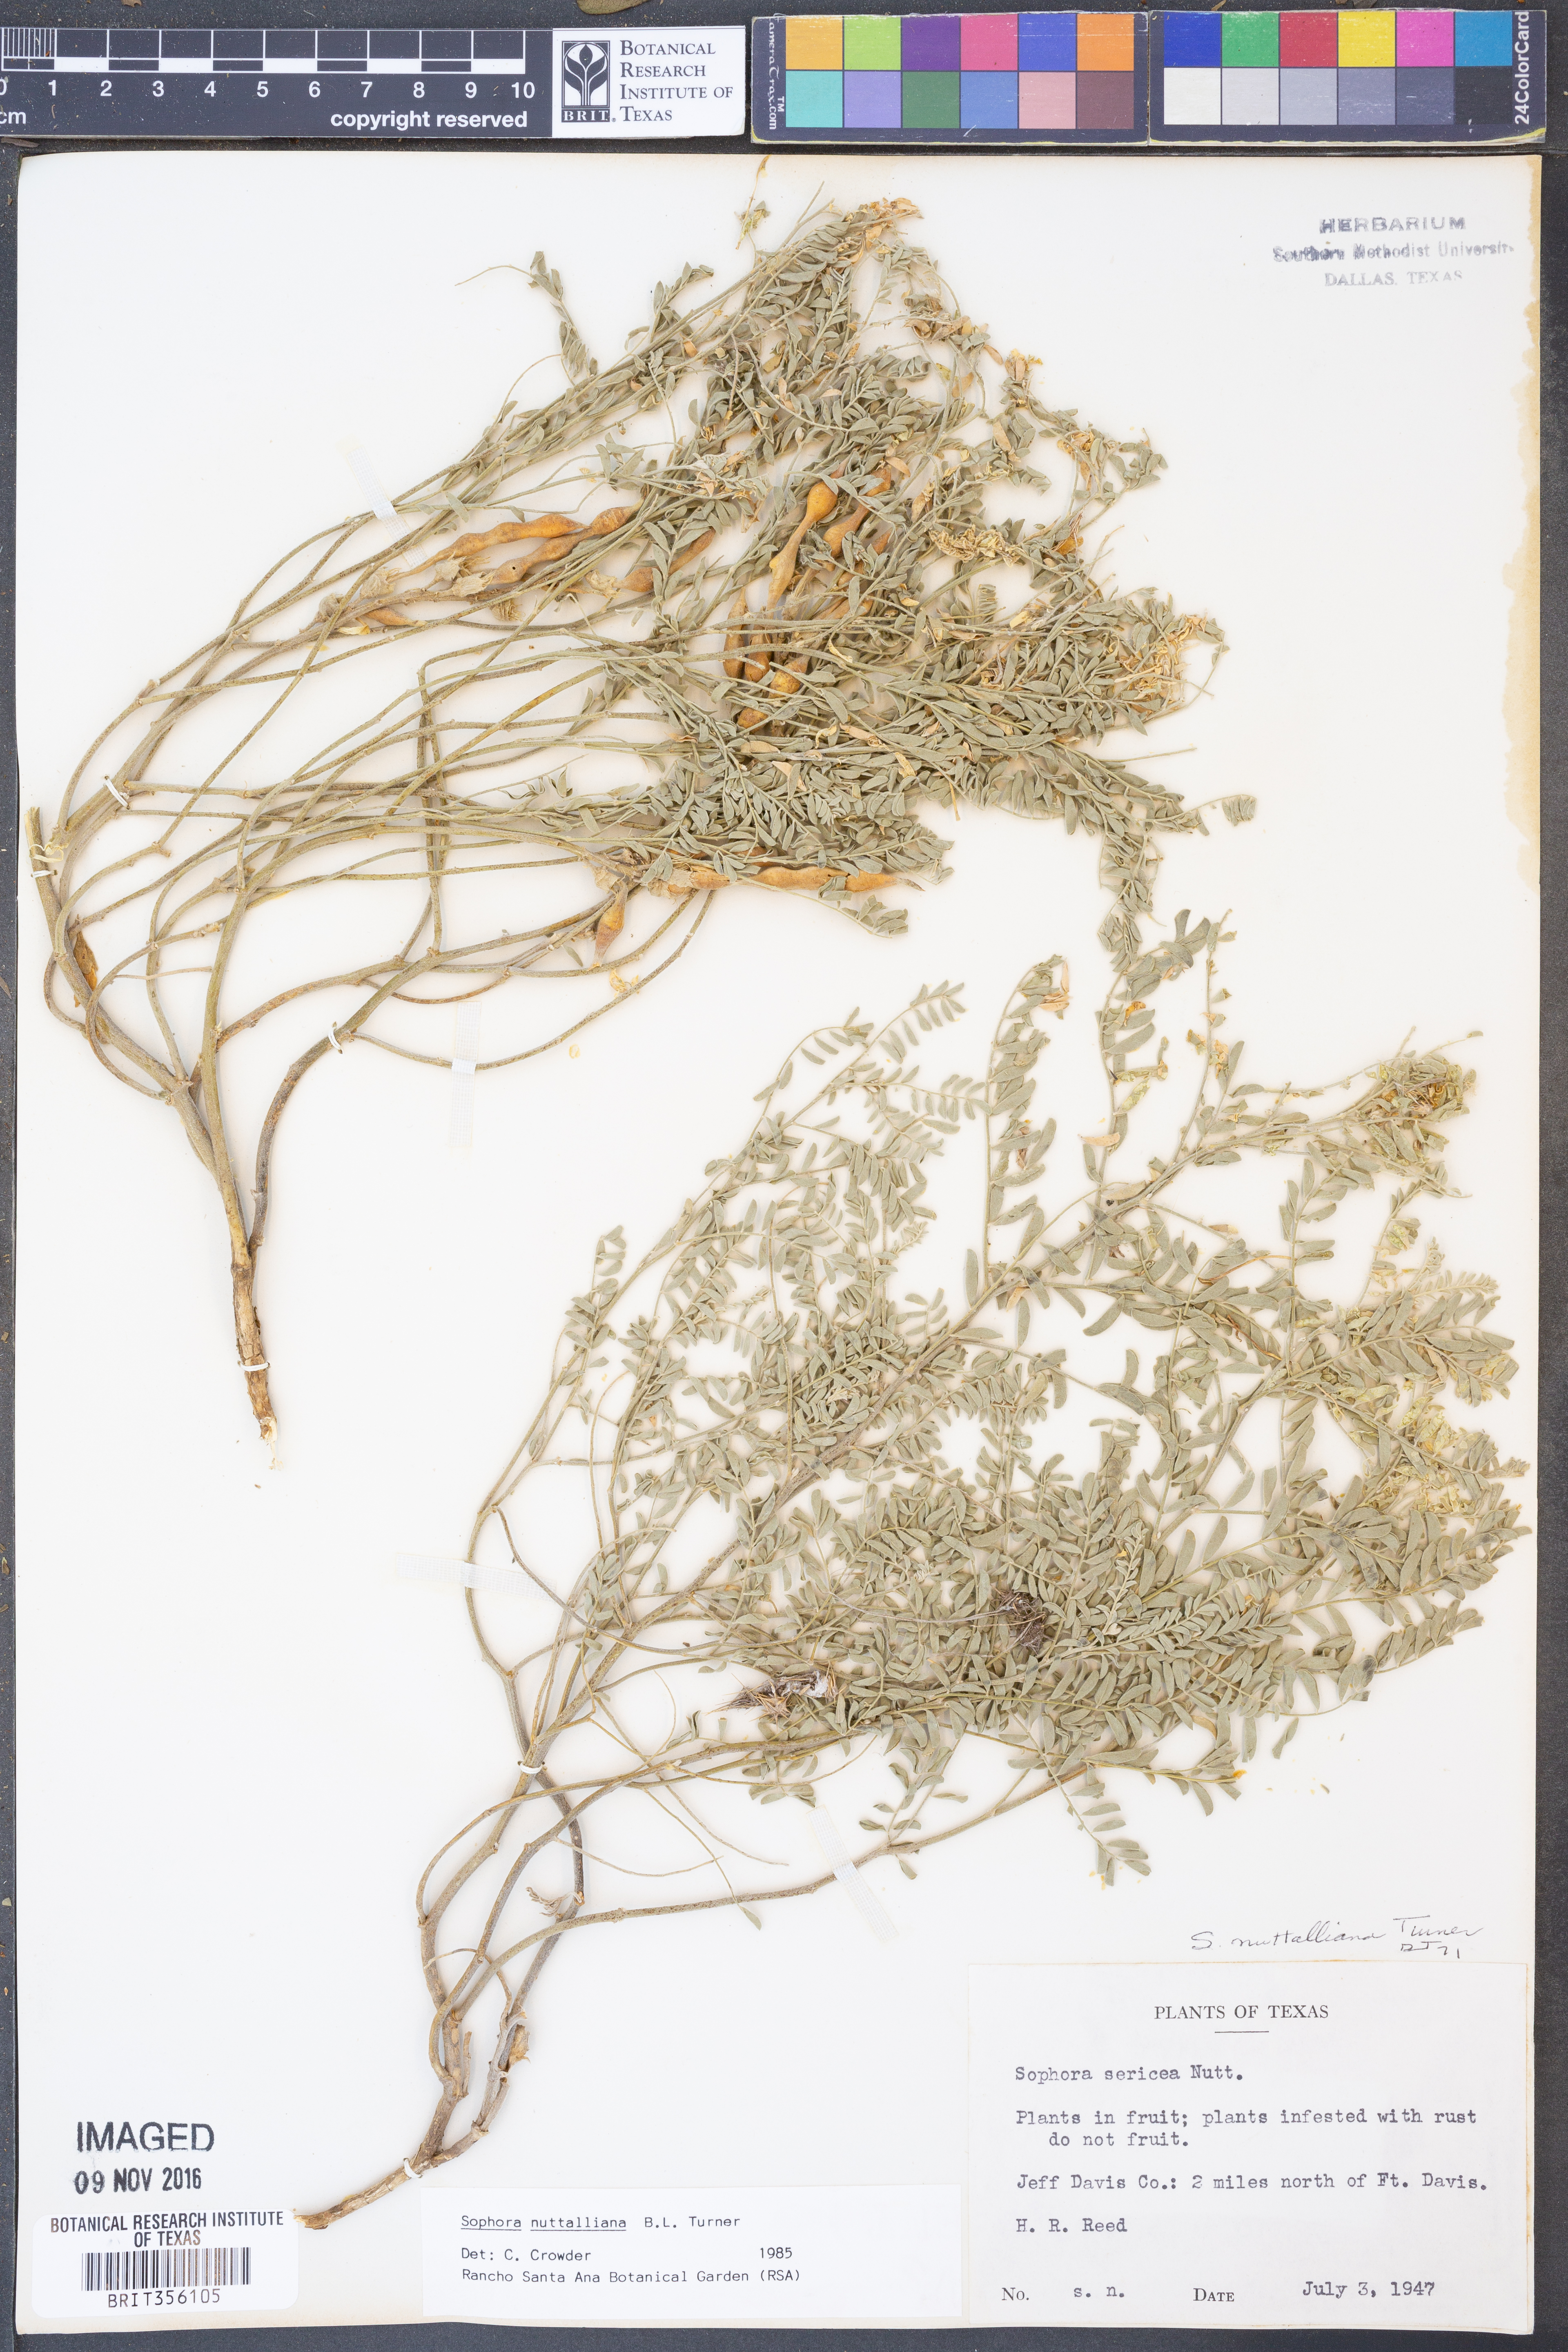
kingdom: Plantae
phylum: Tracheophyta
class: Magnoliopsida
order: Fabales
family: Fabaceae
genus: Sophora
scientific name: Sophora nuttalliana
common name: Silky sophora
